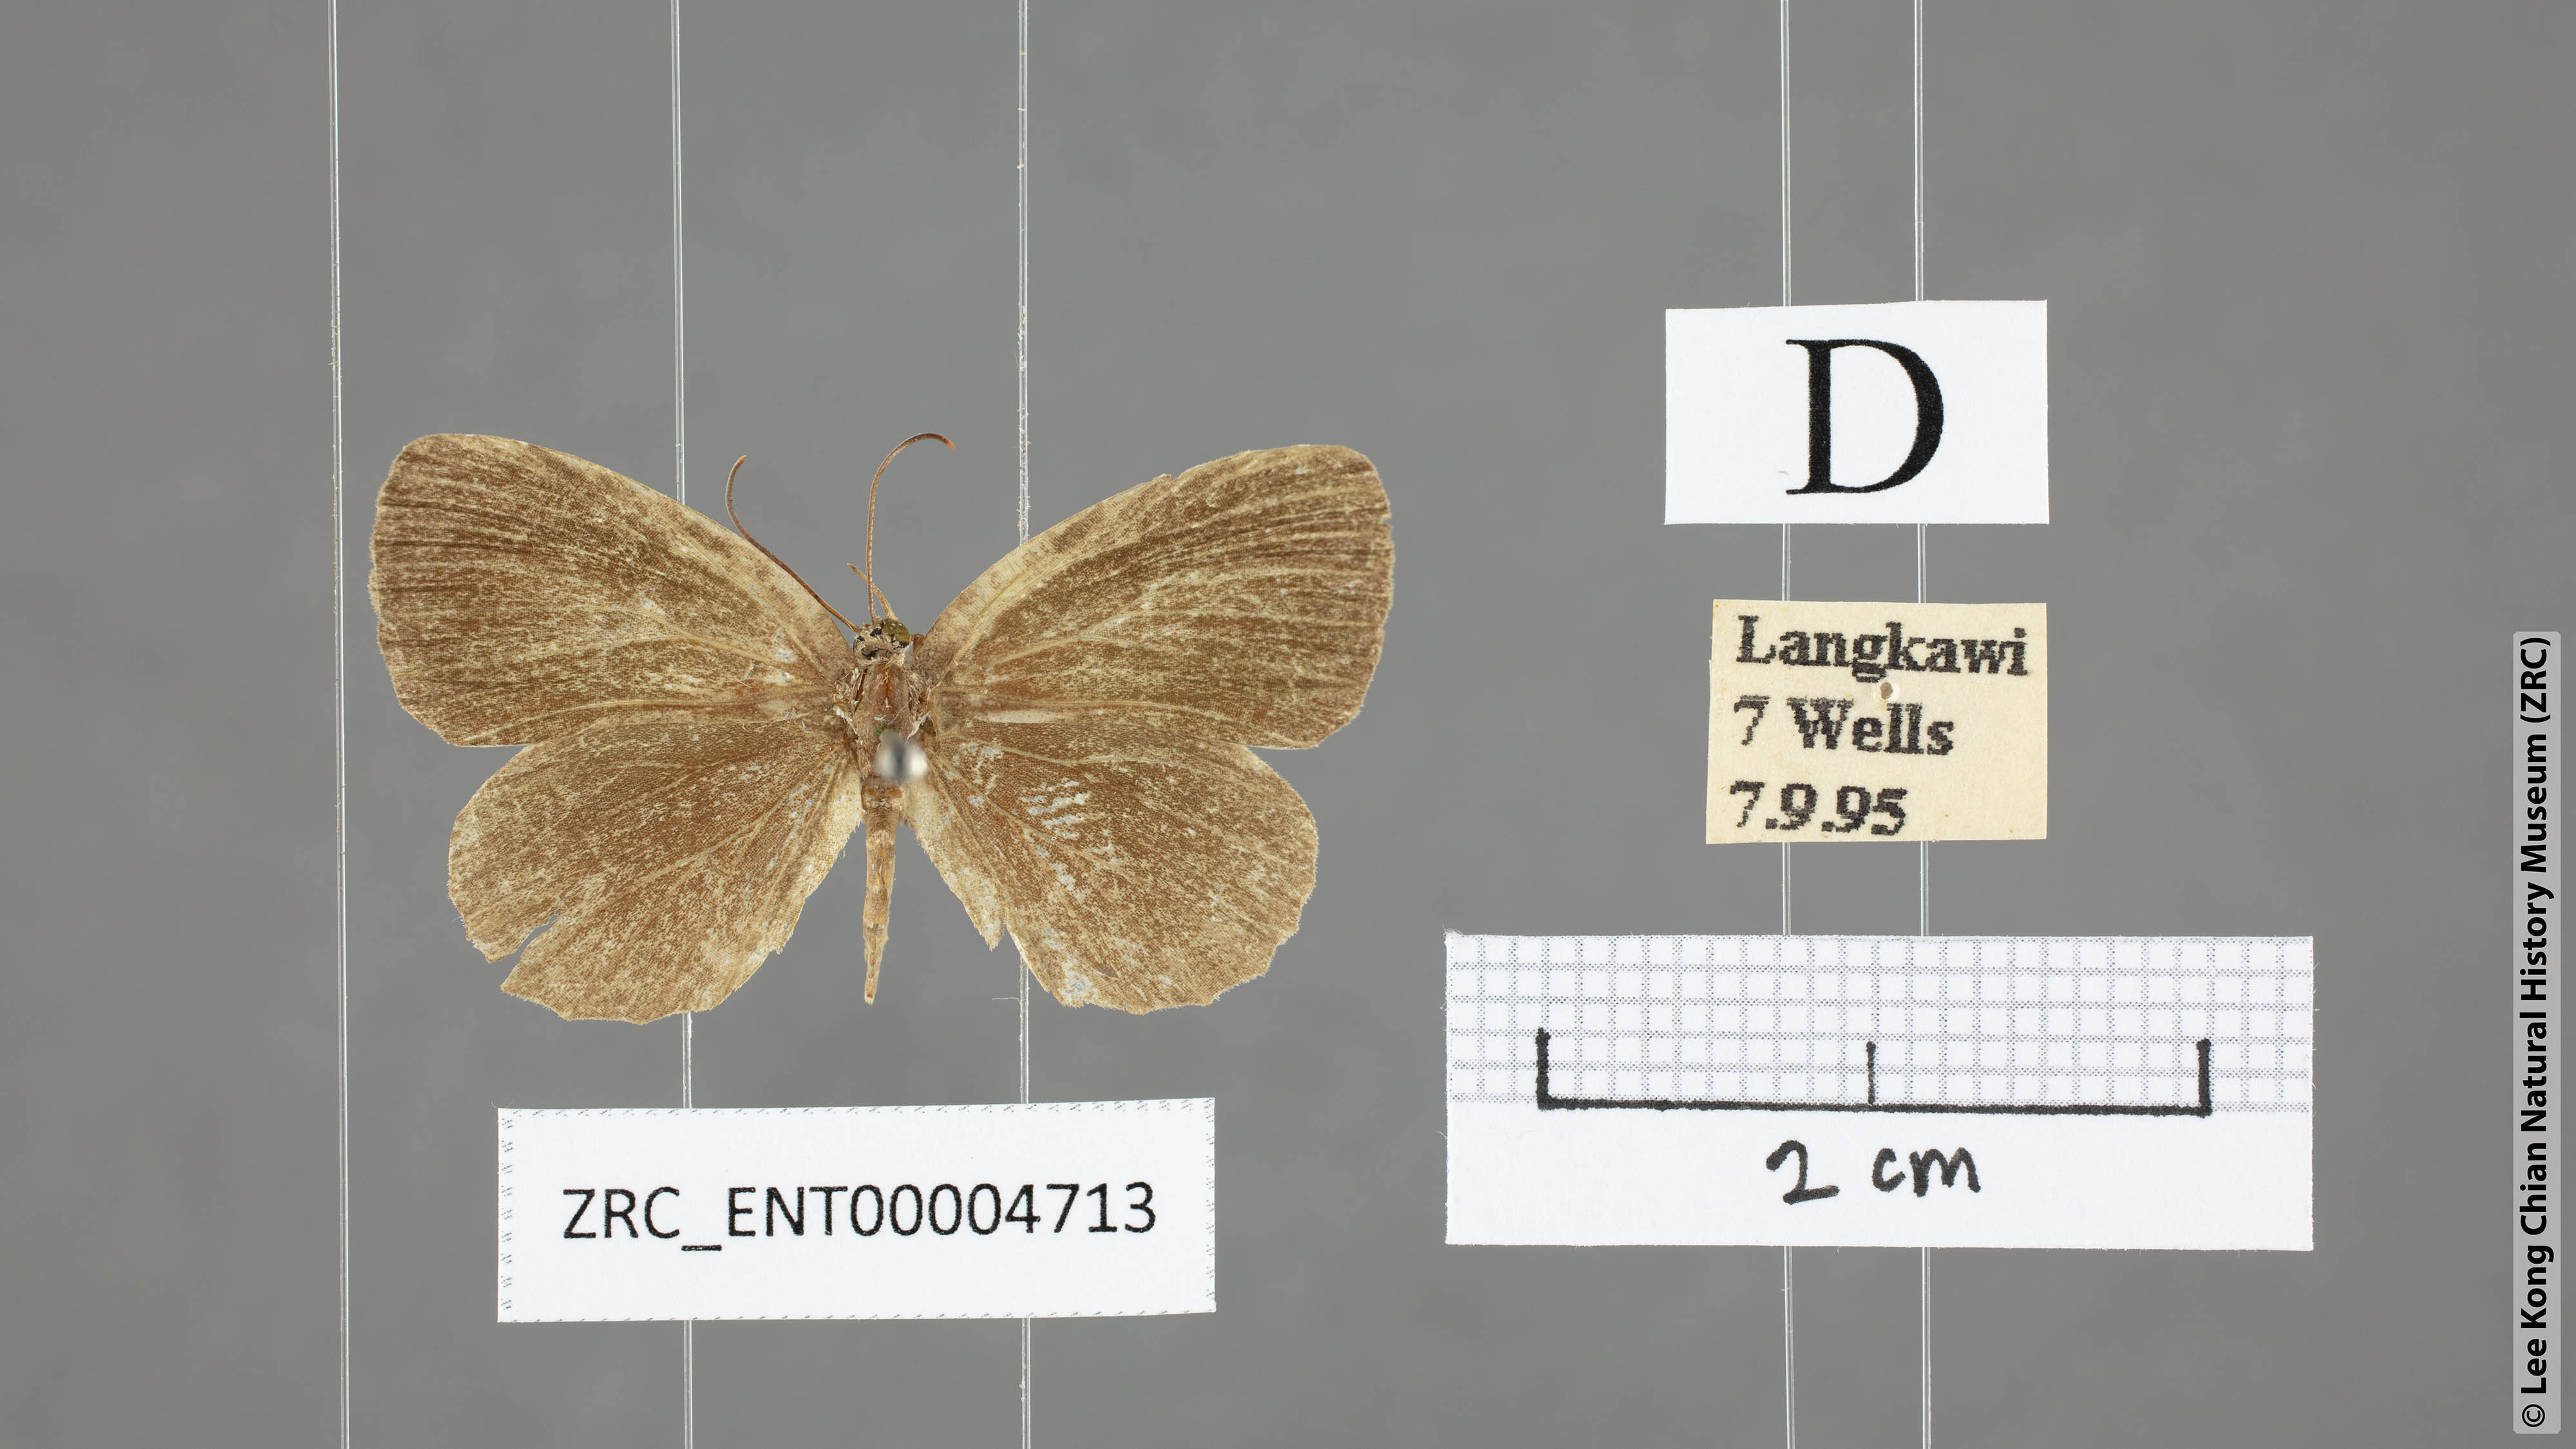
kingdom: Animalia
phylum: Arthropoda
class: Insecta
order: Lepidoptera
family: Lycaenidae
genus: Allotinus
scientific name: Allotinus unicolor
